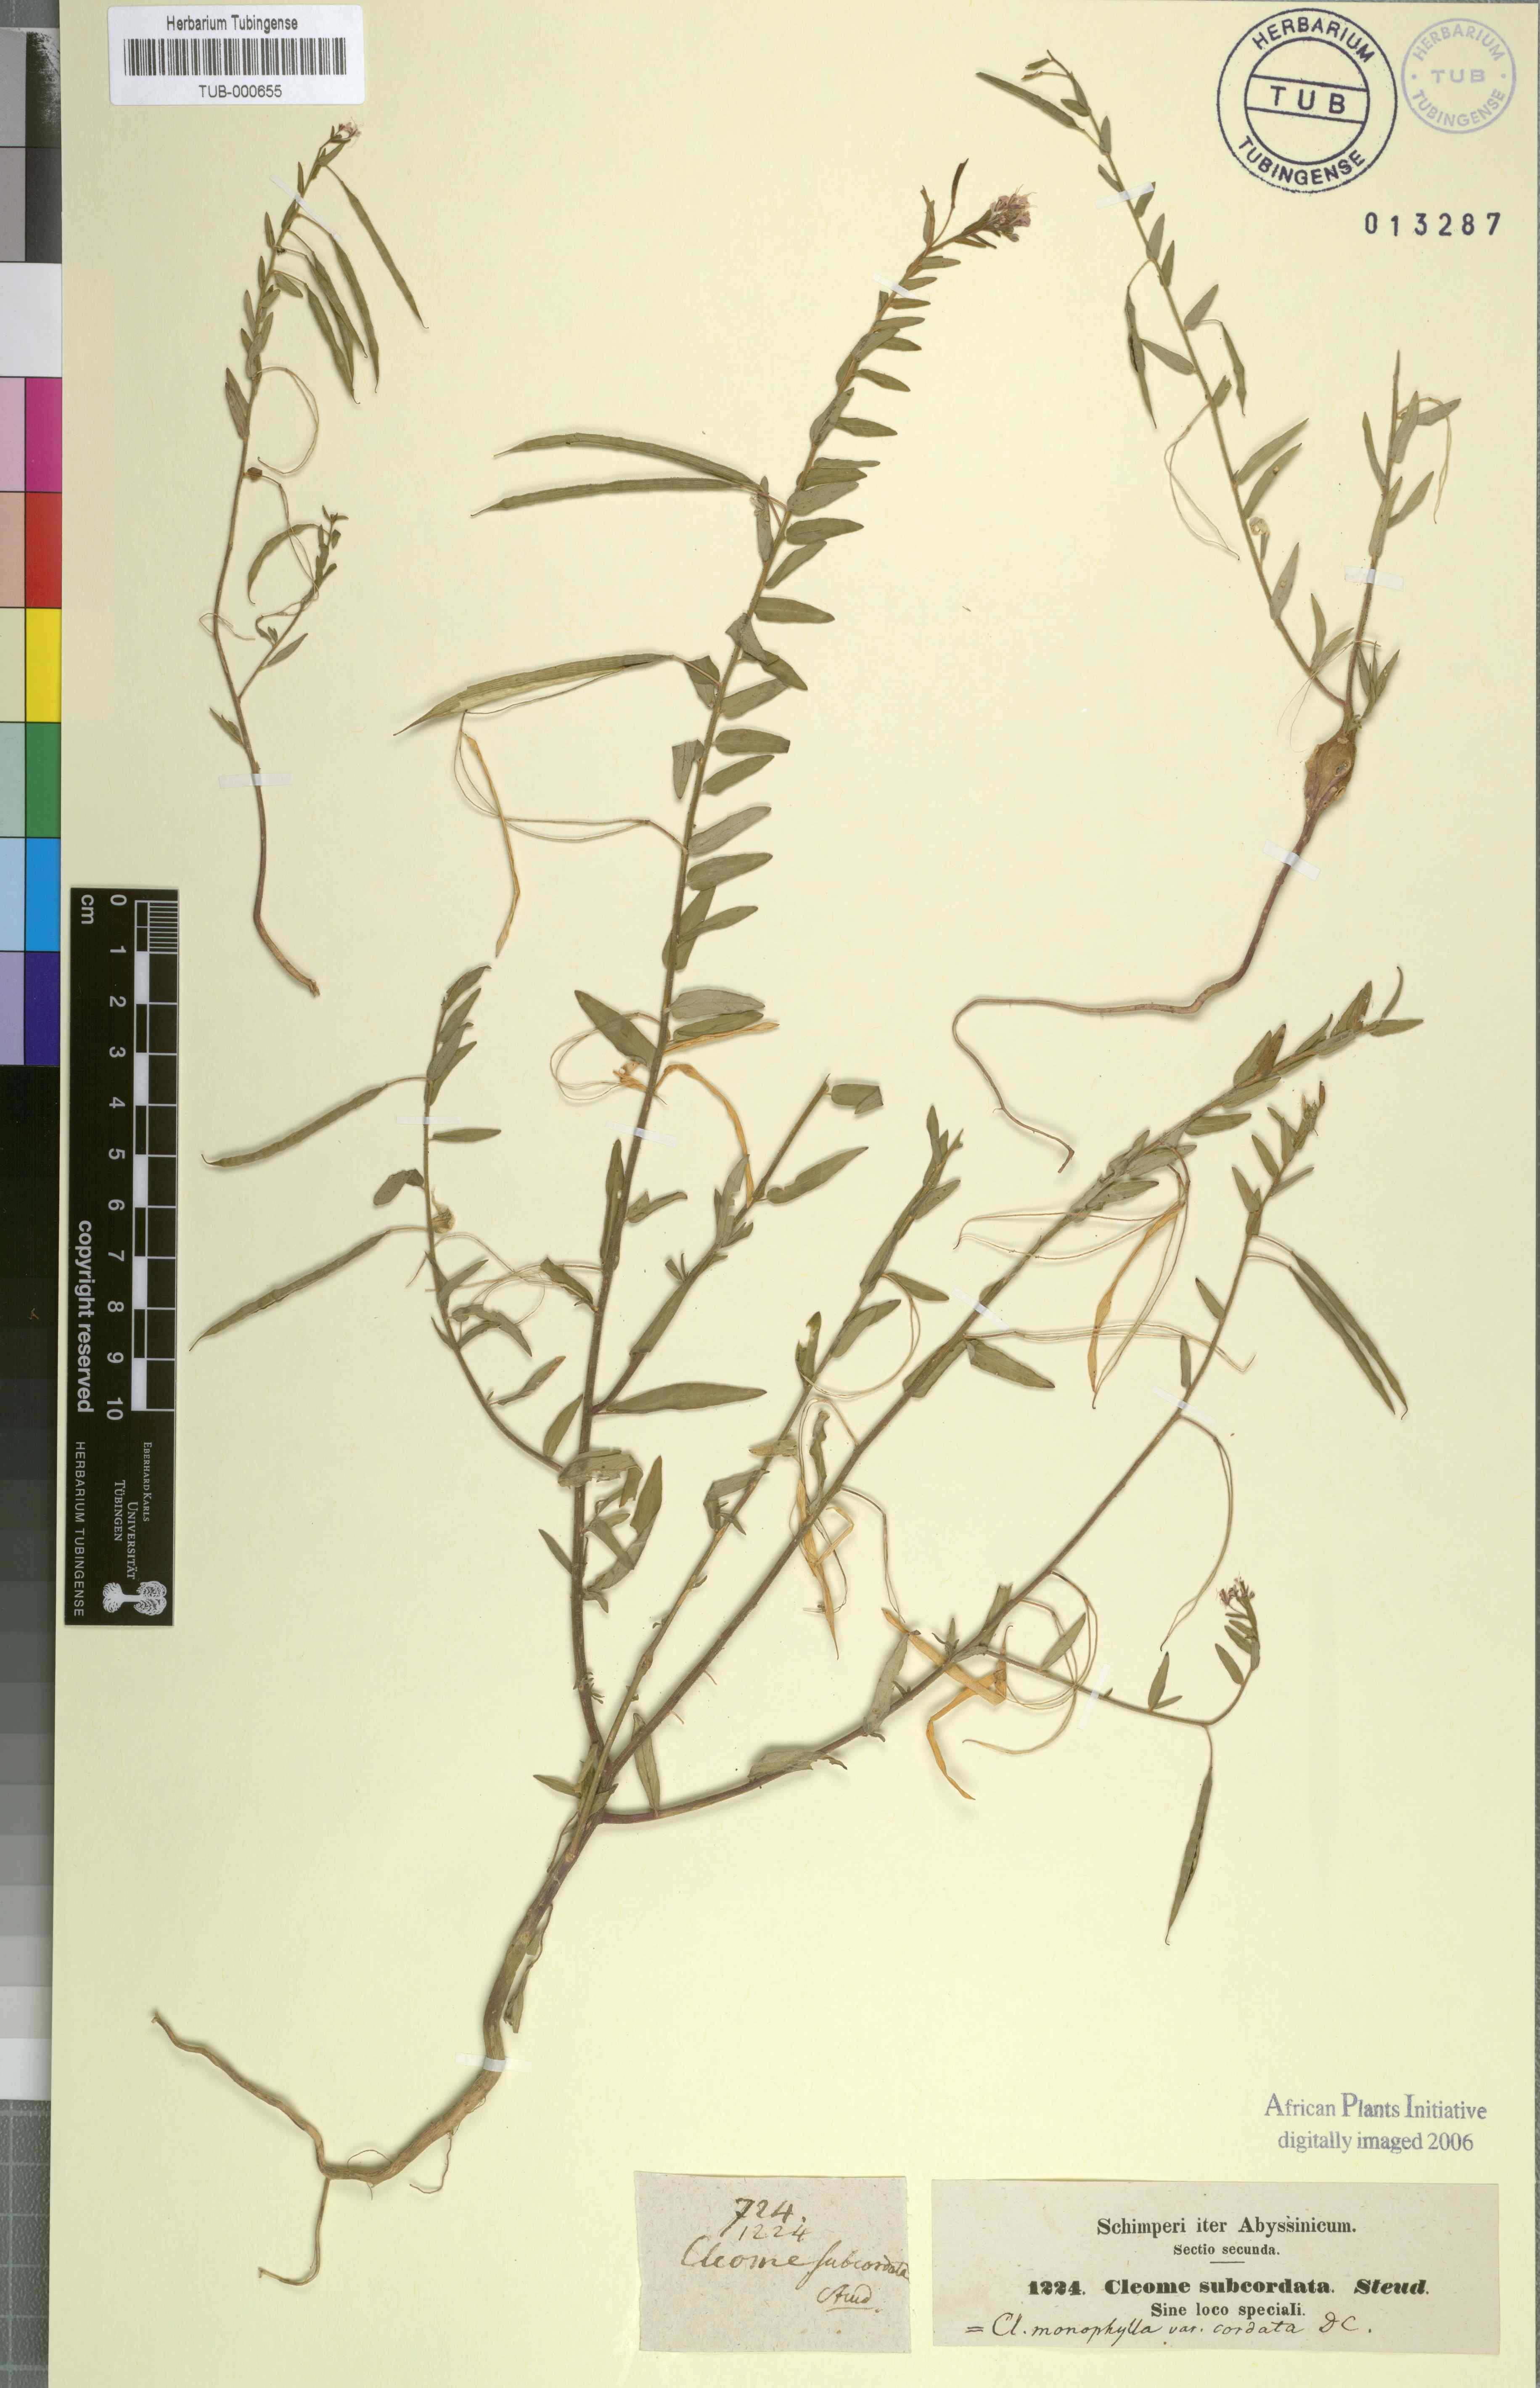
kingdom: Plantae
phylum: Tracheophyta
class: Magnoliopsida
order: Brassicales
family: Cleomaceae
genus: Sieruela
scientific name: Sieruela monophylla
